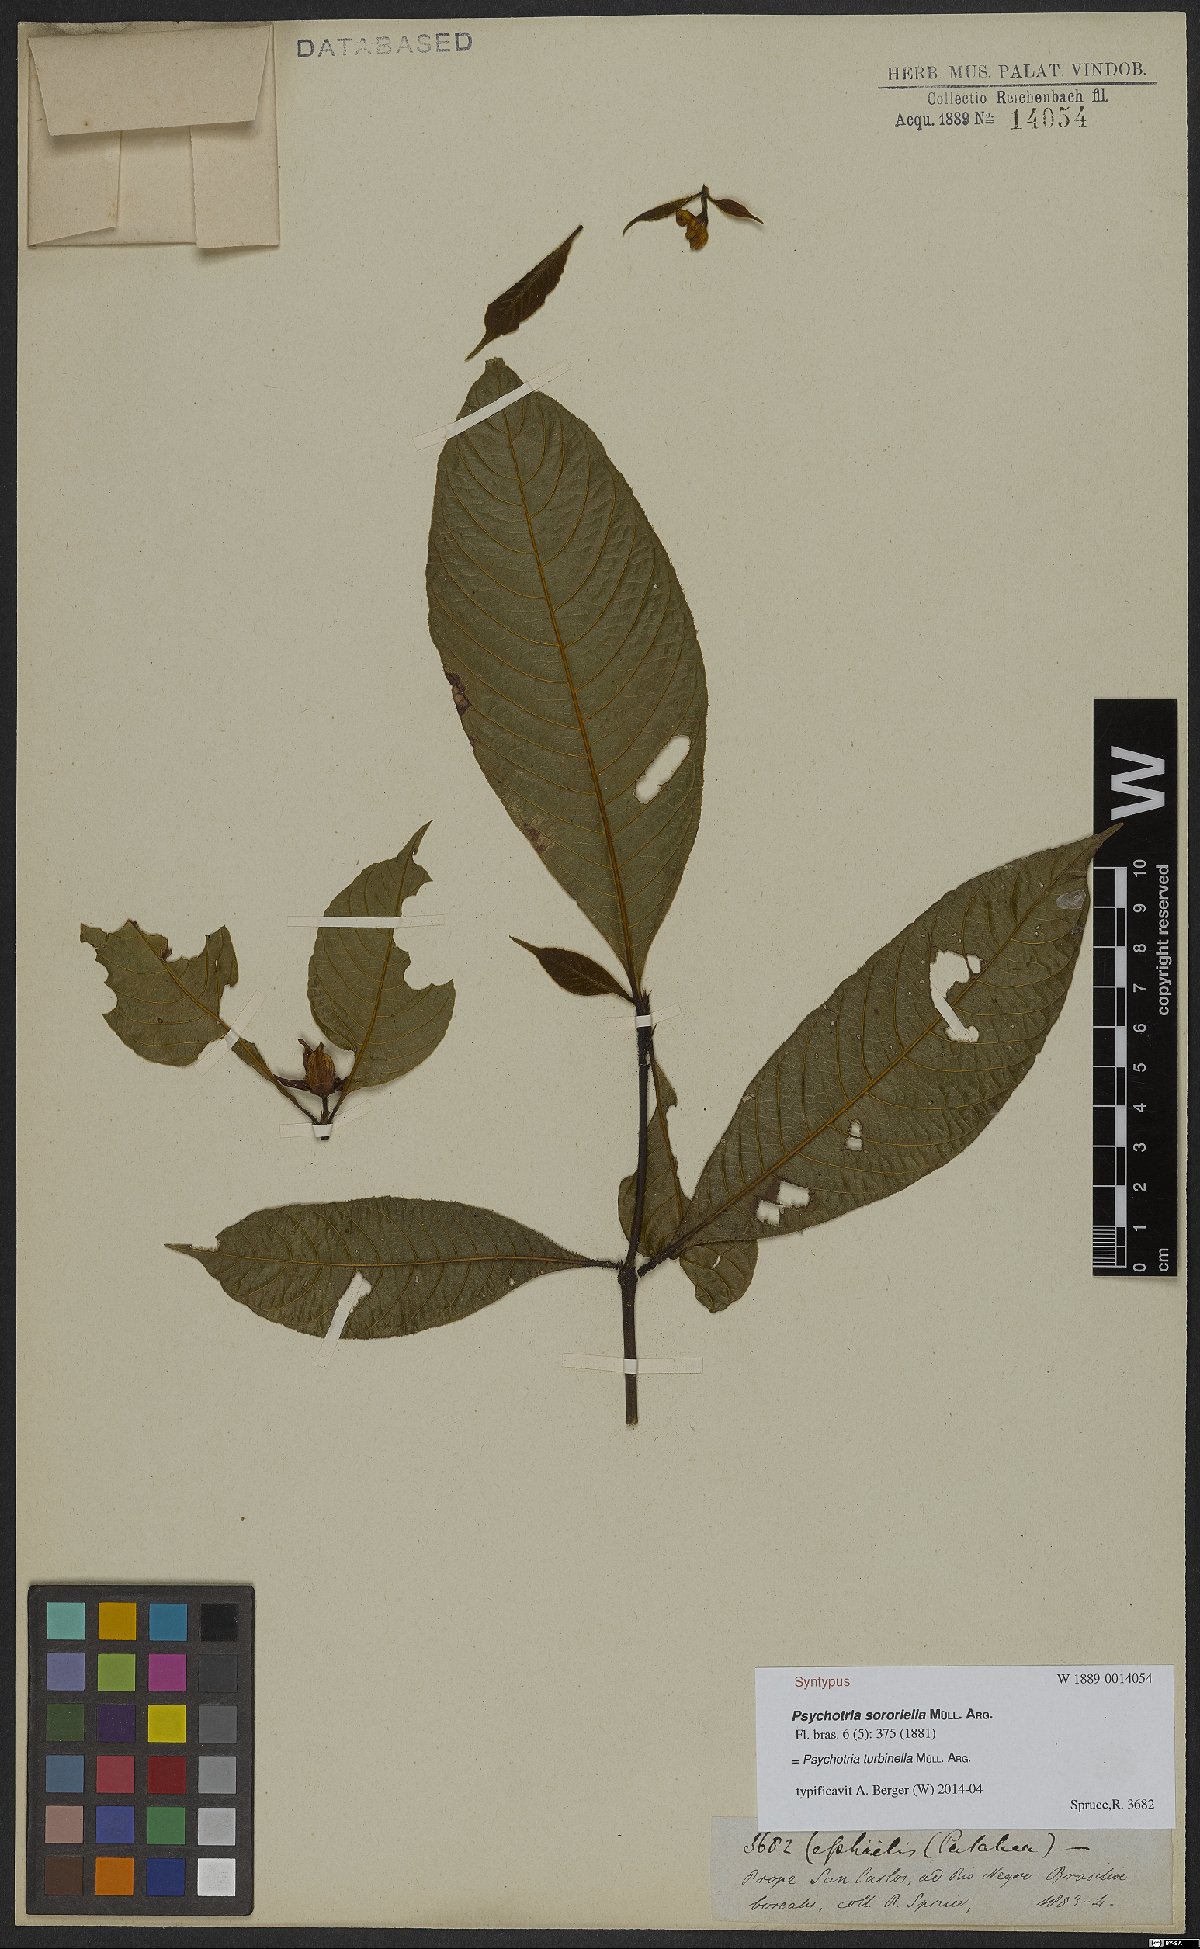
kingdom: Plantae
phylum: Tracheophyta
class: Magnoliopsida
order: Gentianales
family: Rubiaceae
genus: Palicourea
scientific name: Palicourea turbinella
